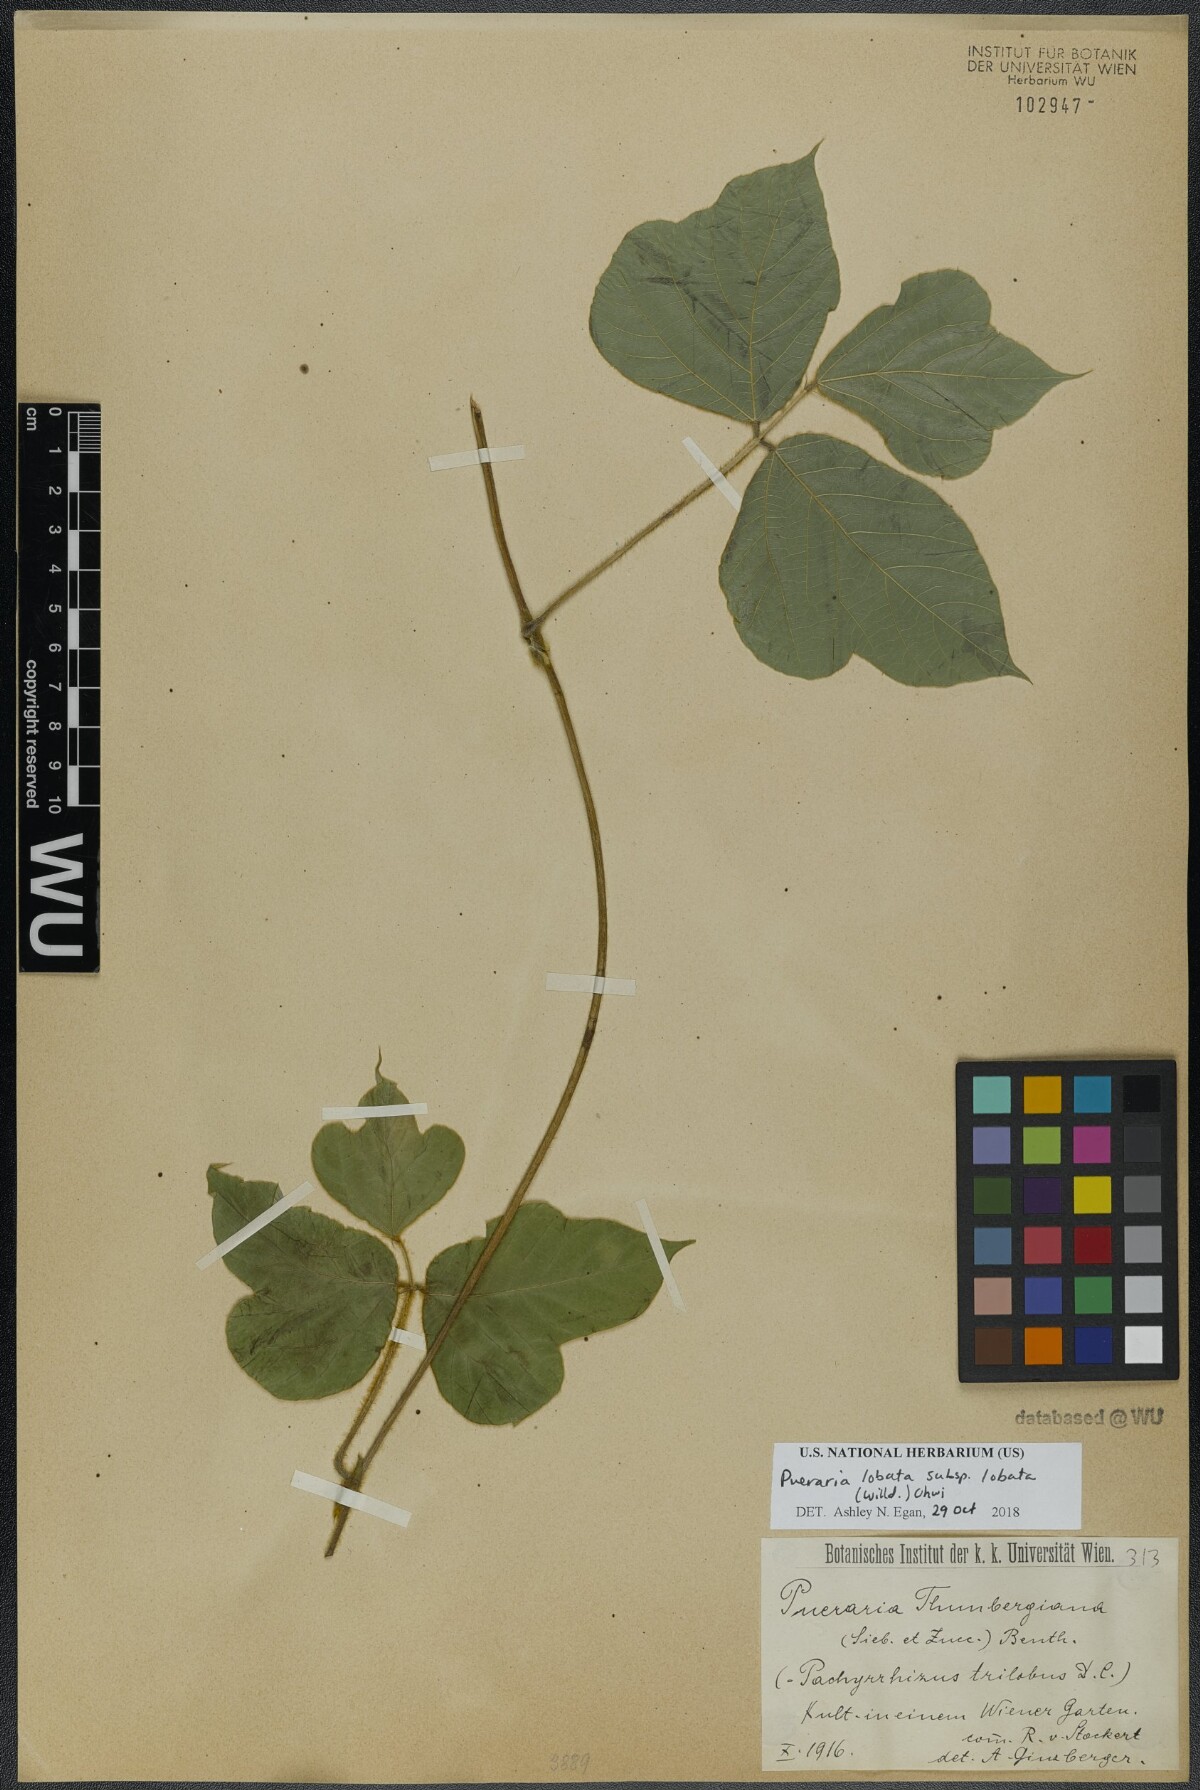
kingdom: Plantae
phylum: Tracheophyta
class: Magnoliopsida
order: Fabales
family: Fabaceae
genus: Pueraria
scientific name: Pueraria montana
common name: Kudzu
